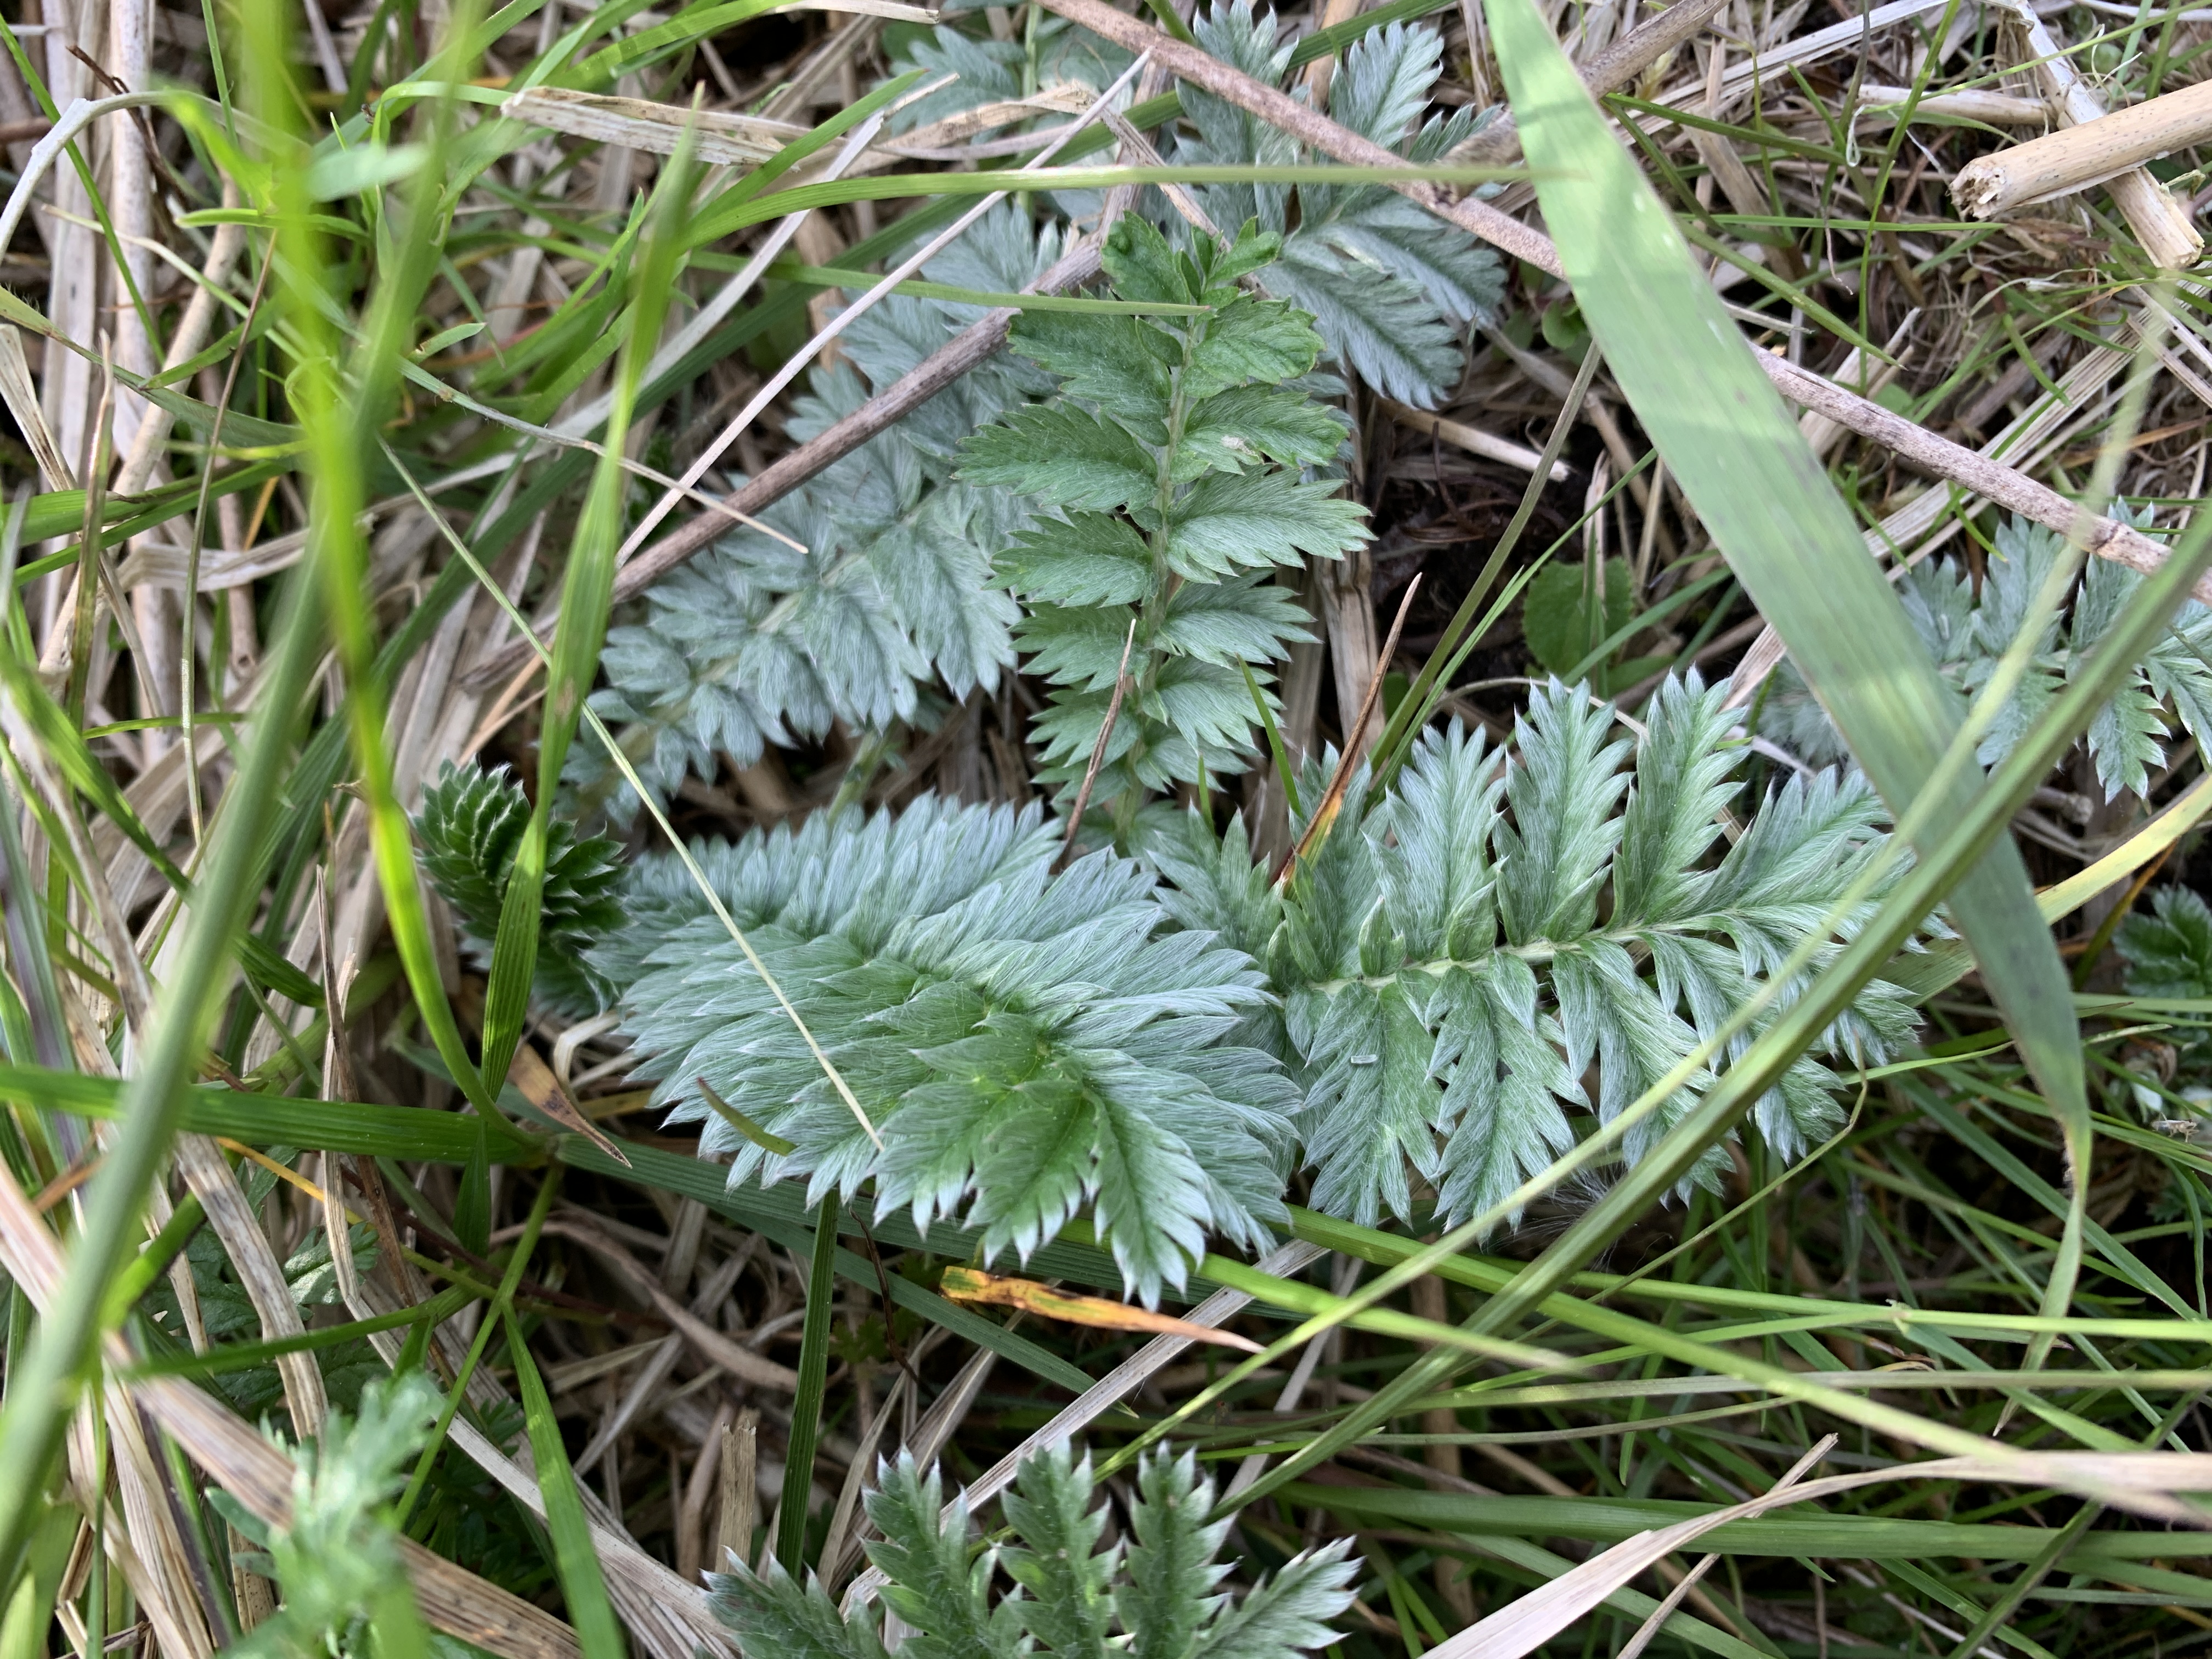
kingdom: Plantae
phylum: Tracheophyta
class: Magnoliopsida
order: Rosales
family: Rosaceae
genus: Argentina
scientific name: Argentina anserina
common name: Gåsepotentil
